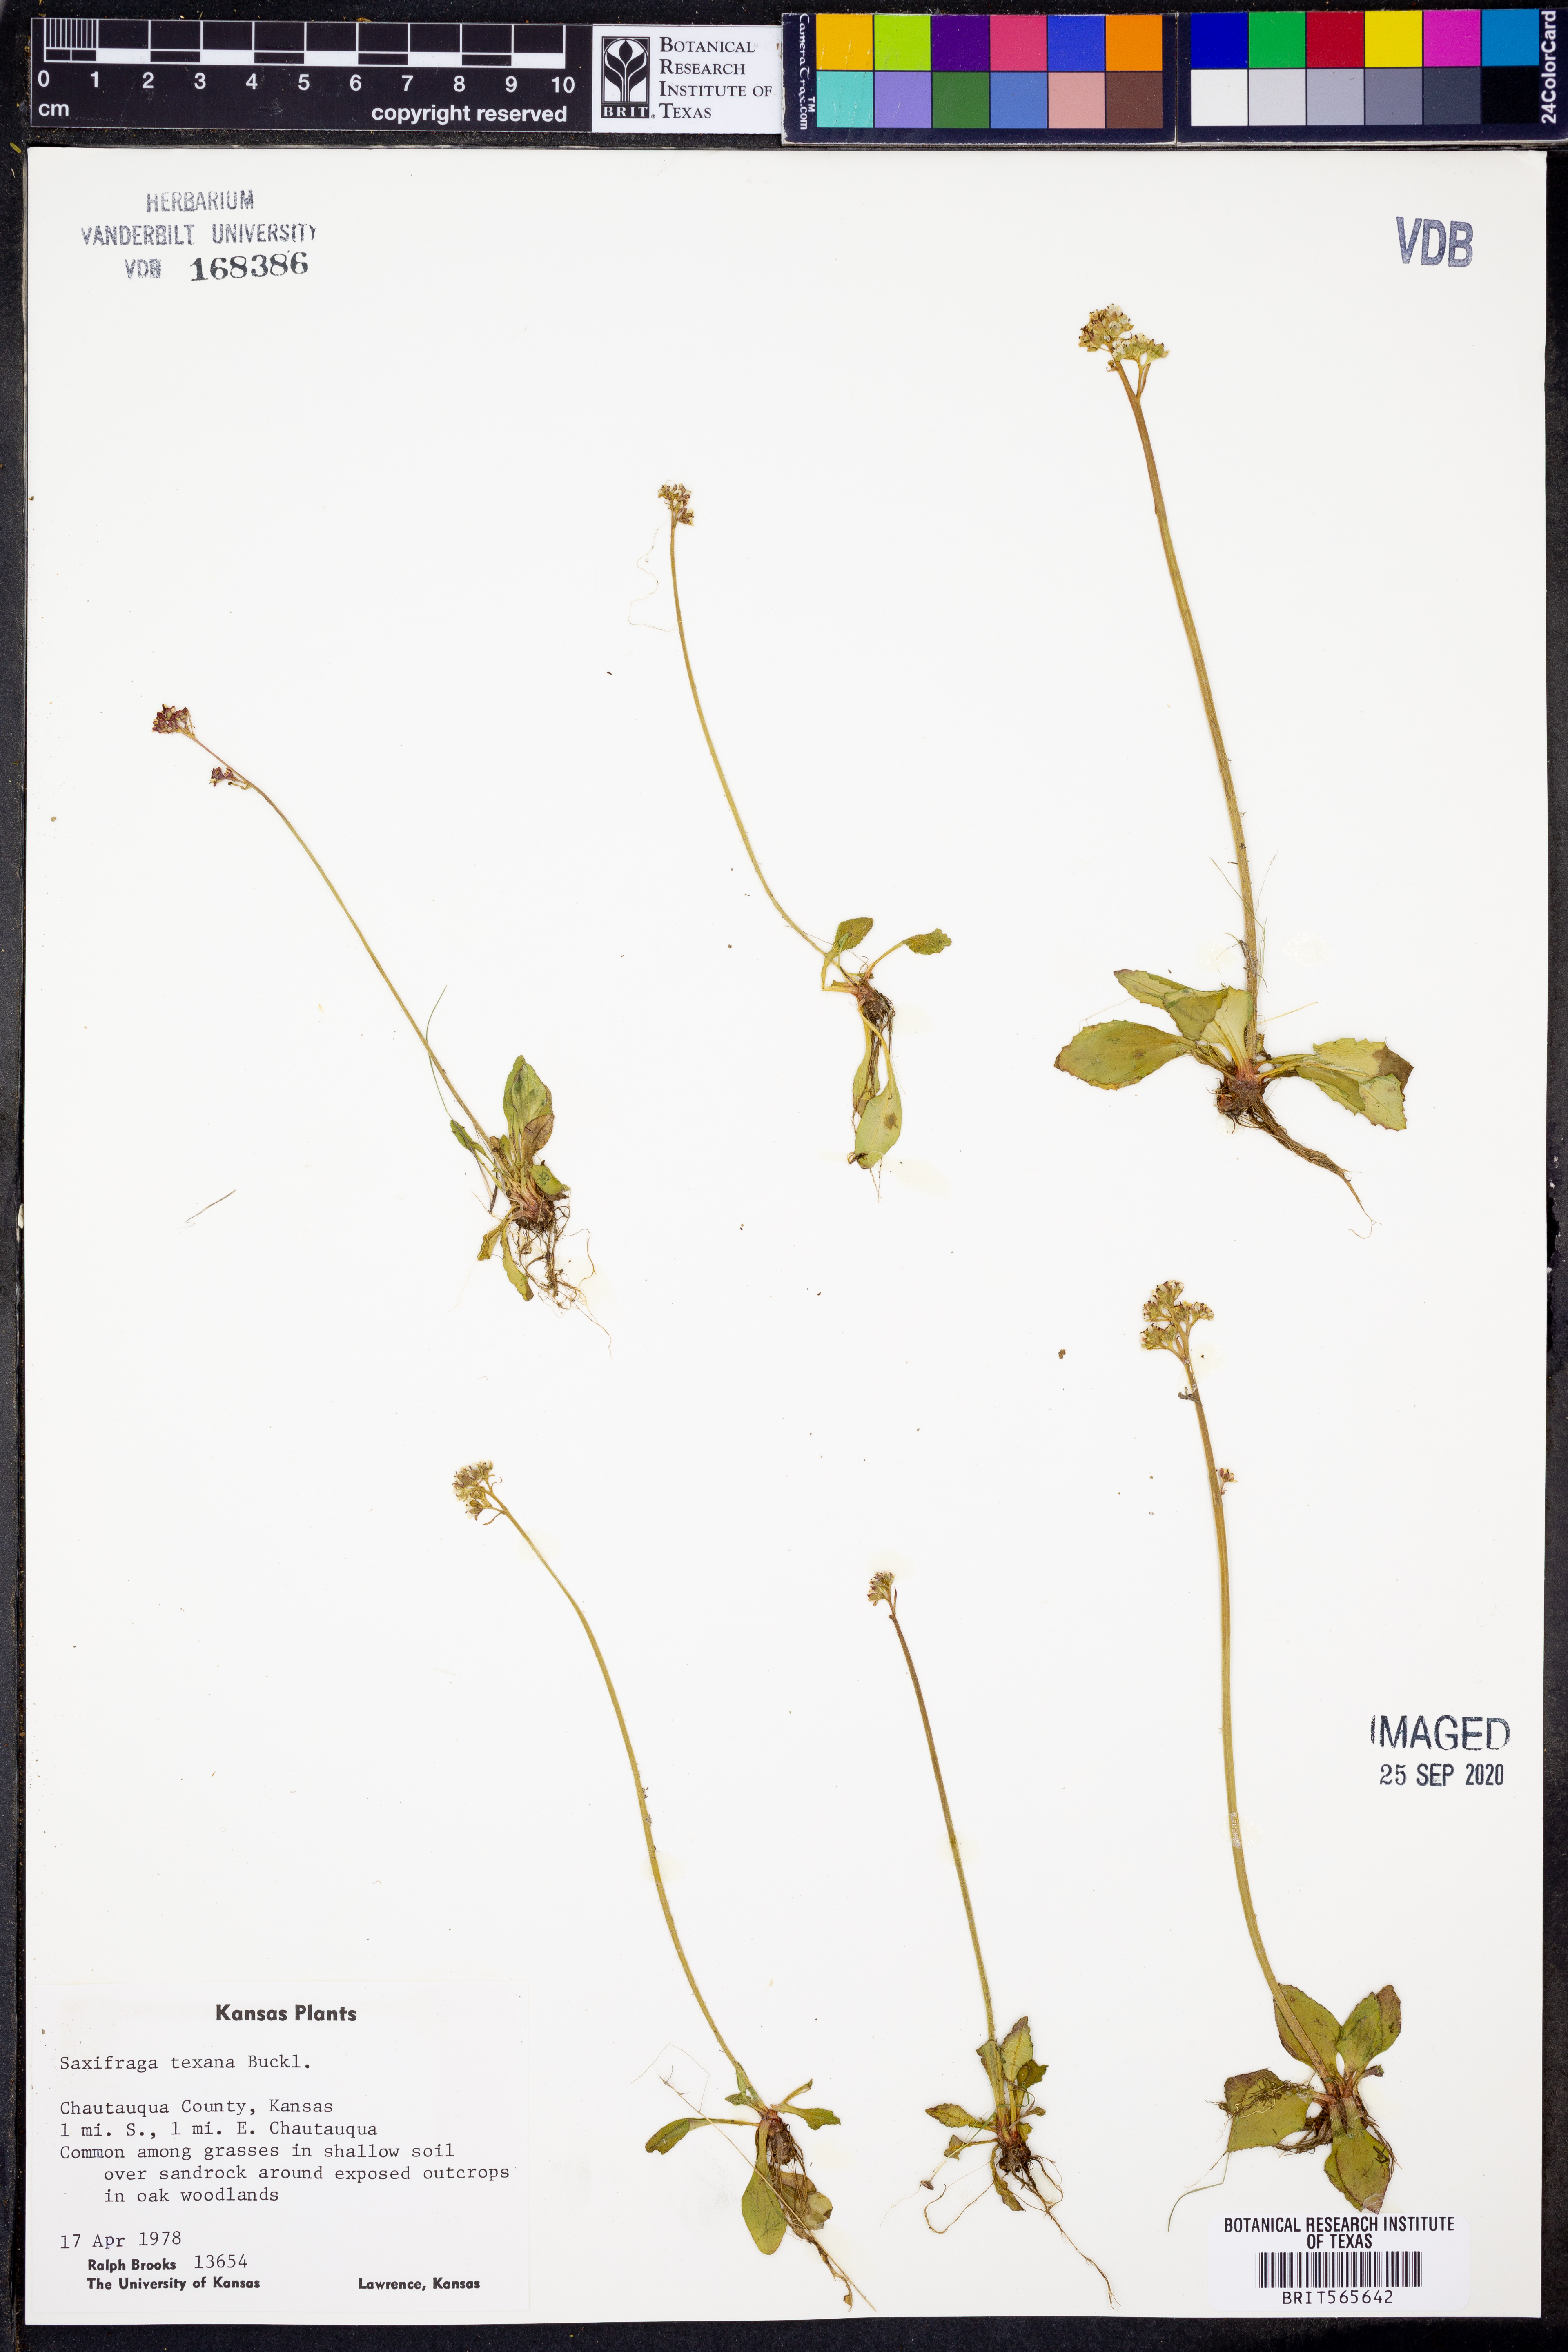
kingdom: Plantae
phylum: Tracheophyta
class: Magnoliopsida
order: Saxifragales
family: Saxifragaceae
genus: Micranthes
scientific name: Micranthes texana
